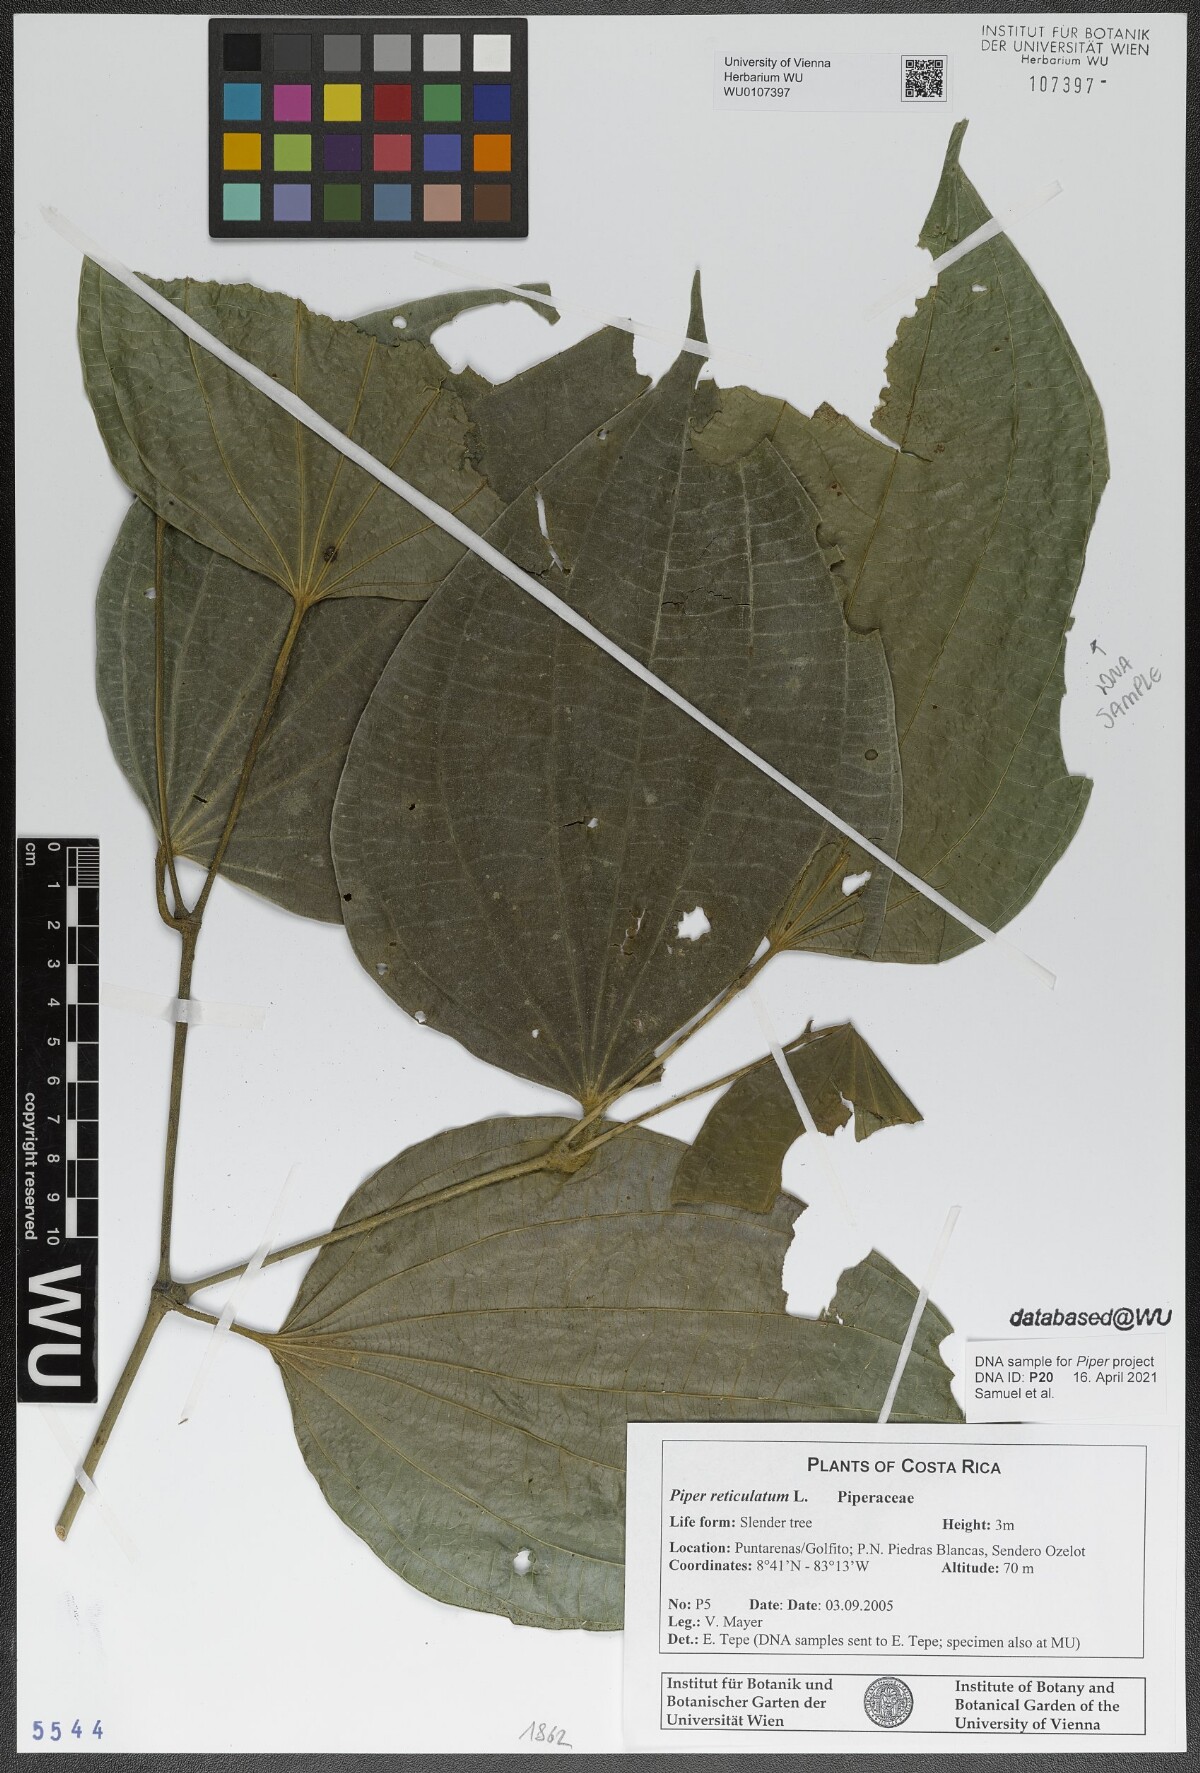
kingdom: Plantae
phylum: Tracheophyta
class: Magnoliopsida
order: Piperales
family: Piperaceae
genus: Piper
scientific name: Piper reticulatum
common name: Wild cane
